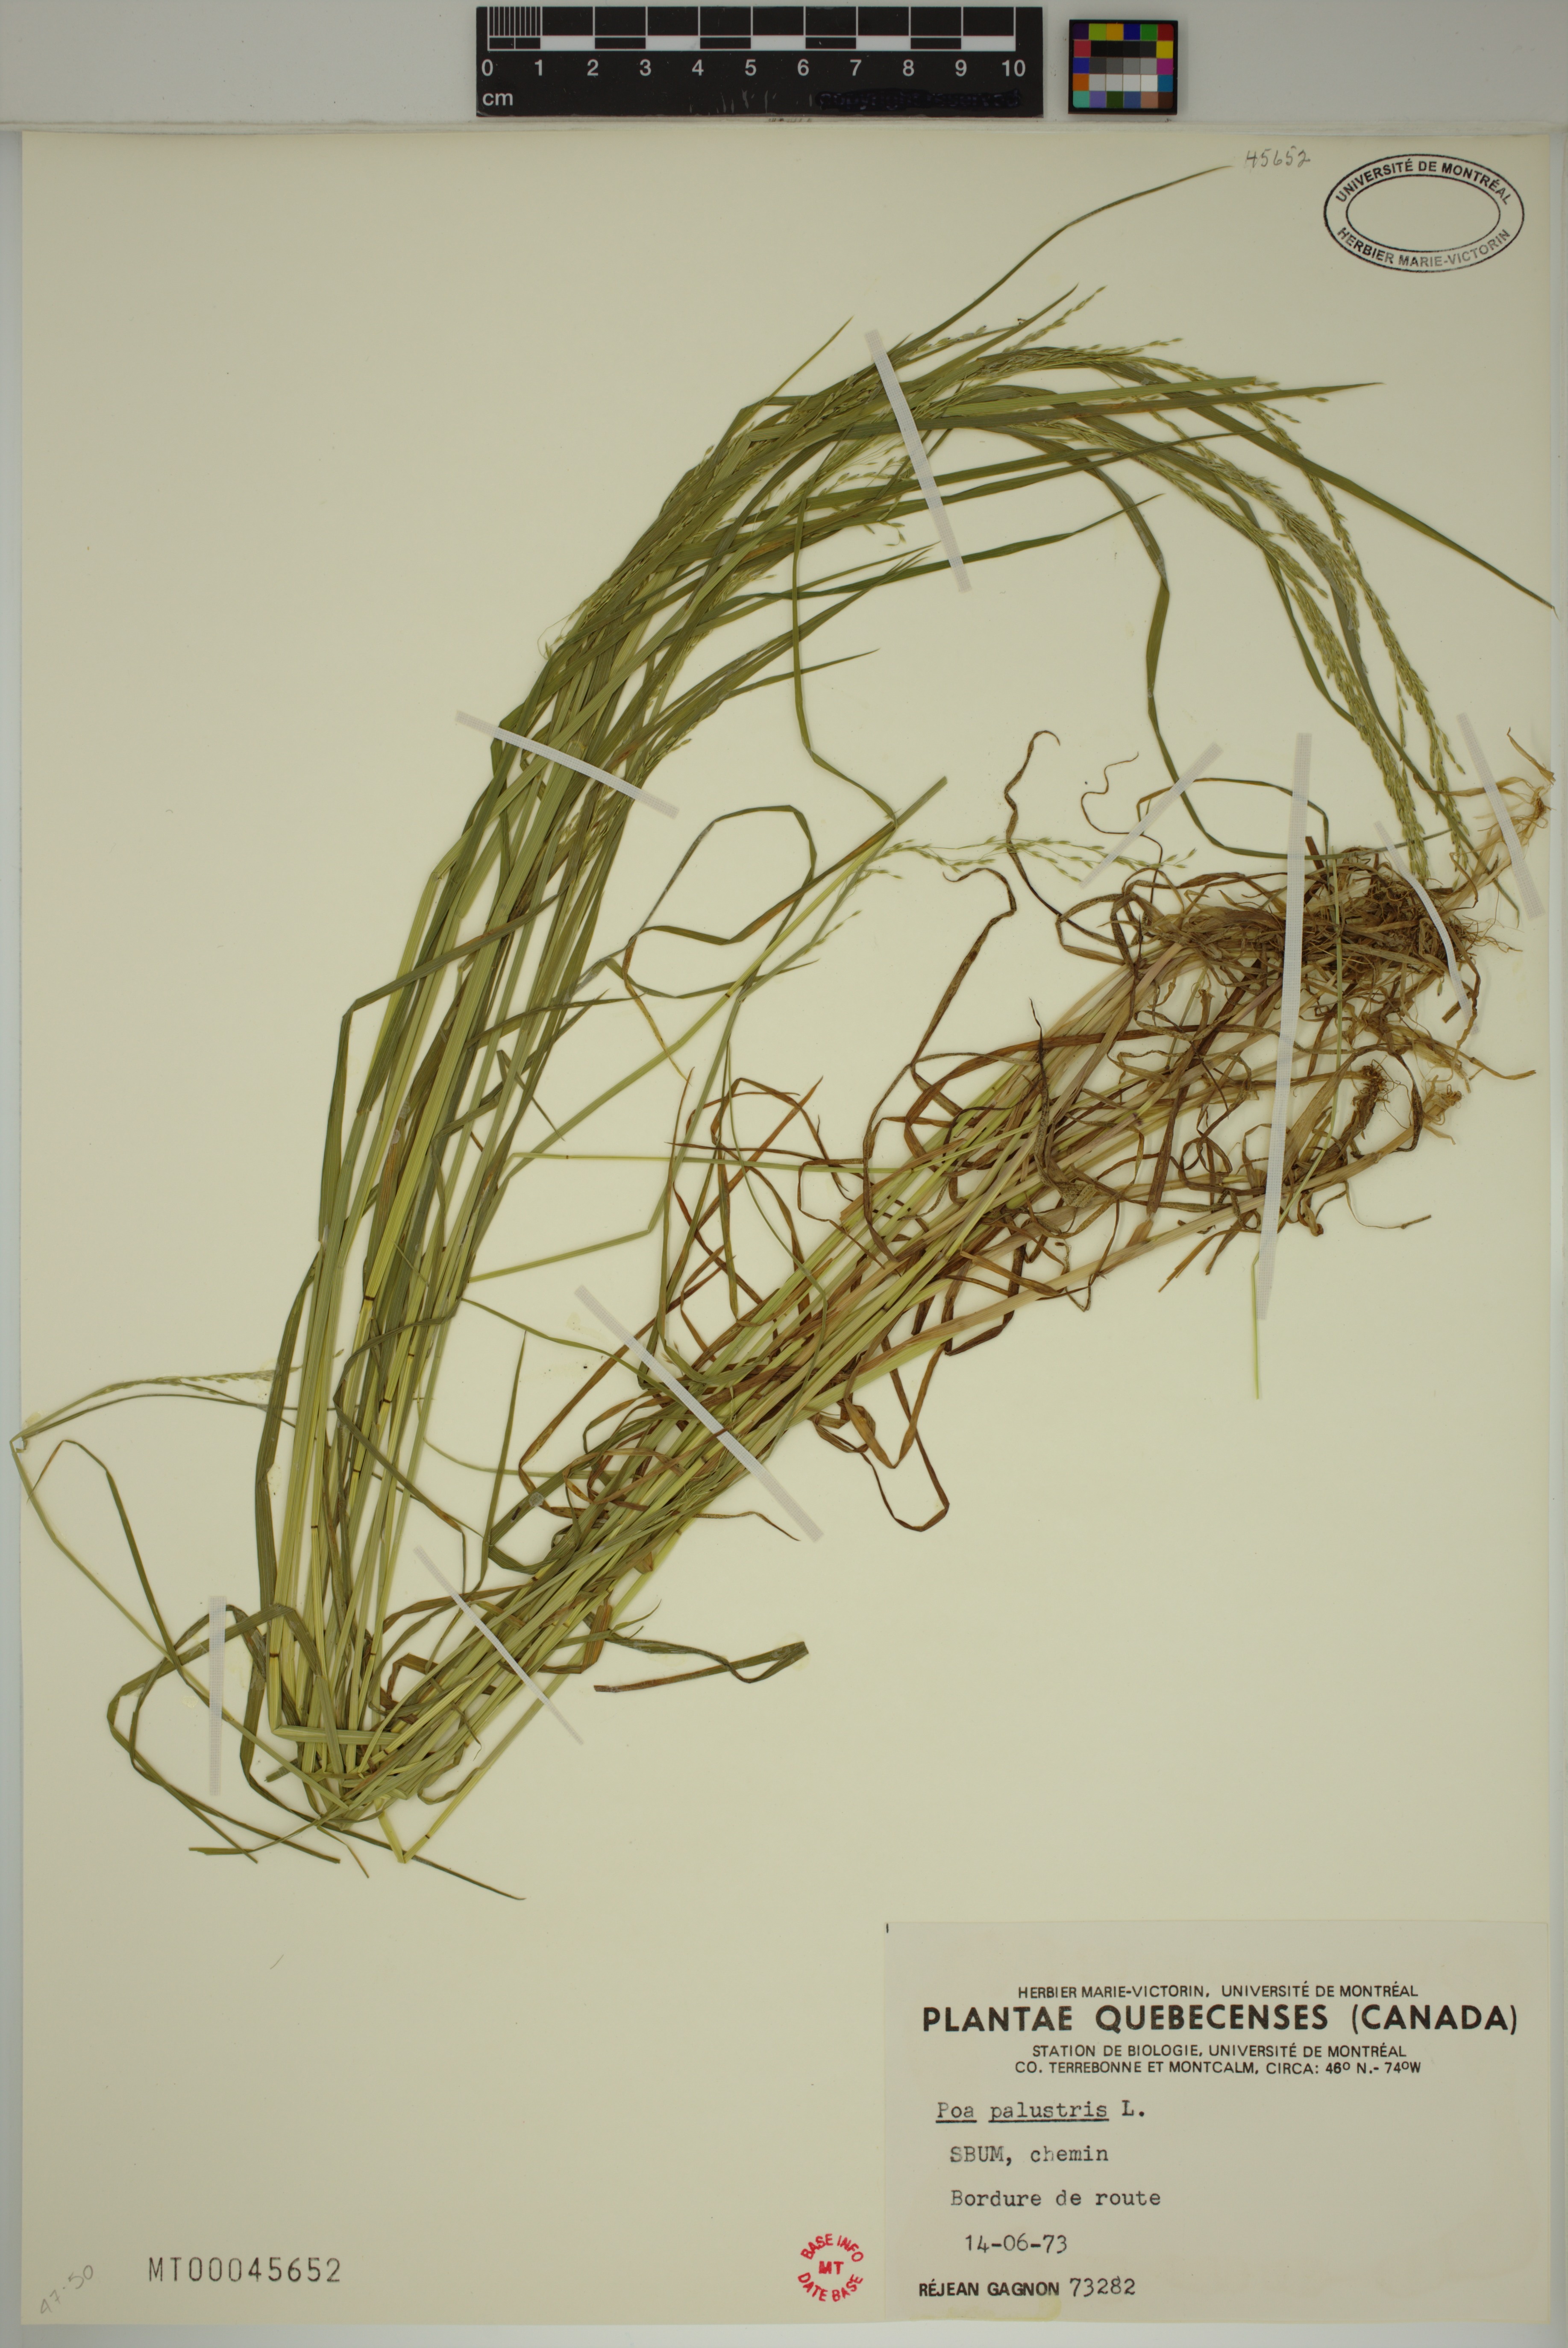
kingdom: Plantae
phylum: Tracheophyta
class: Liliopsida
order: Poales
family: Poaceae
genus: Poa
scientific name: Poa palustris
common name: Swamp meadow-grass
